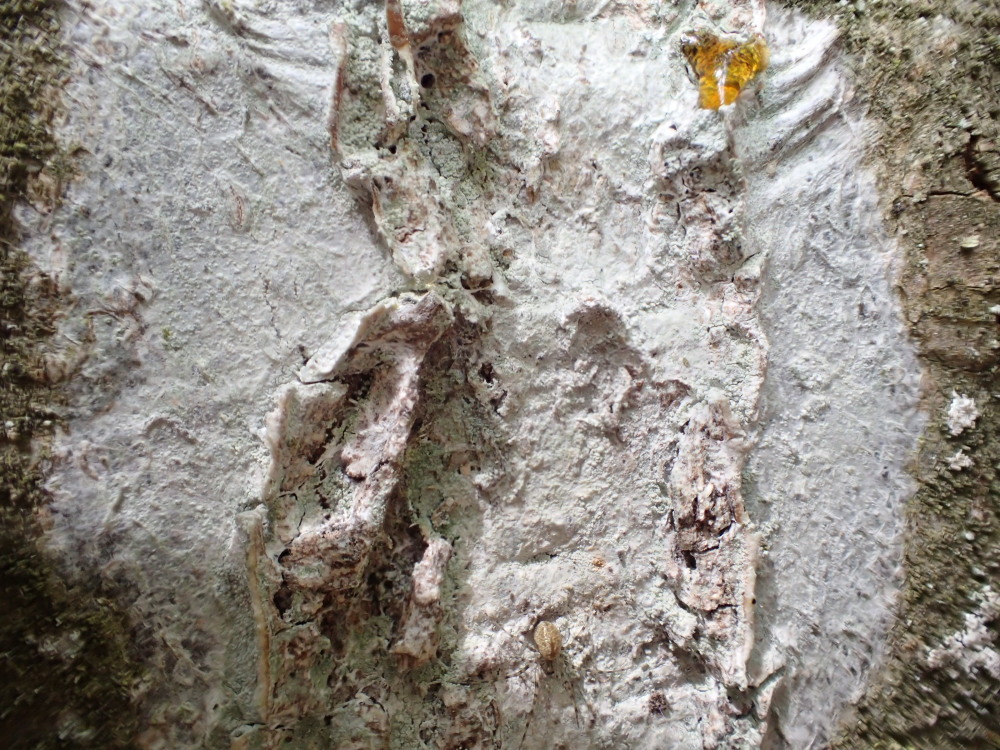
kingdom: Fungi
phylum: Ascomycota
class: Lecanoromycetes
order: Ostropales
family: Phlyctidaceae
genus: Phlyctis
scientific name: Phlyctis argena
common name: almindelig sølvlav
